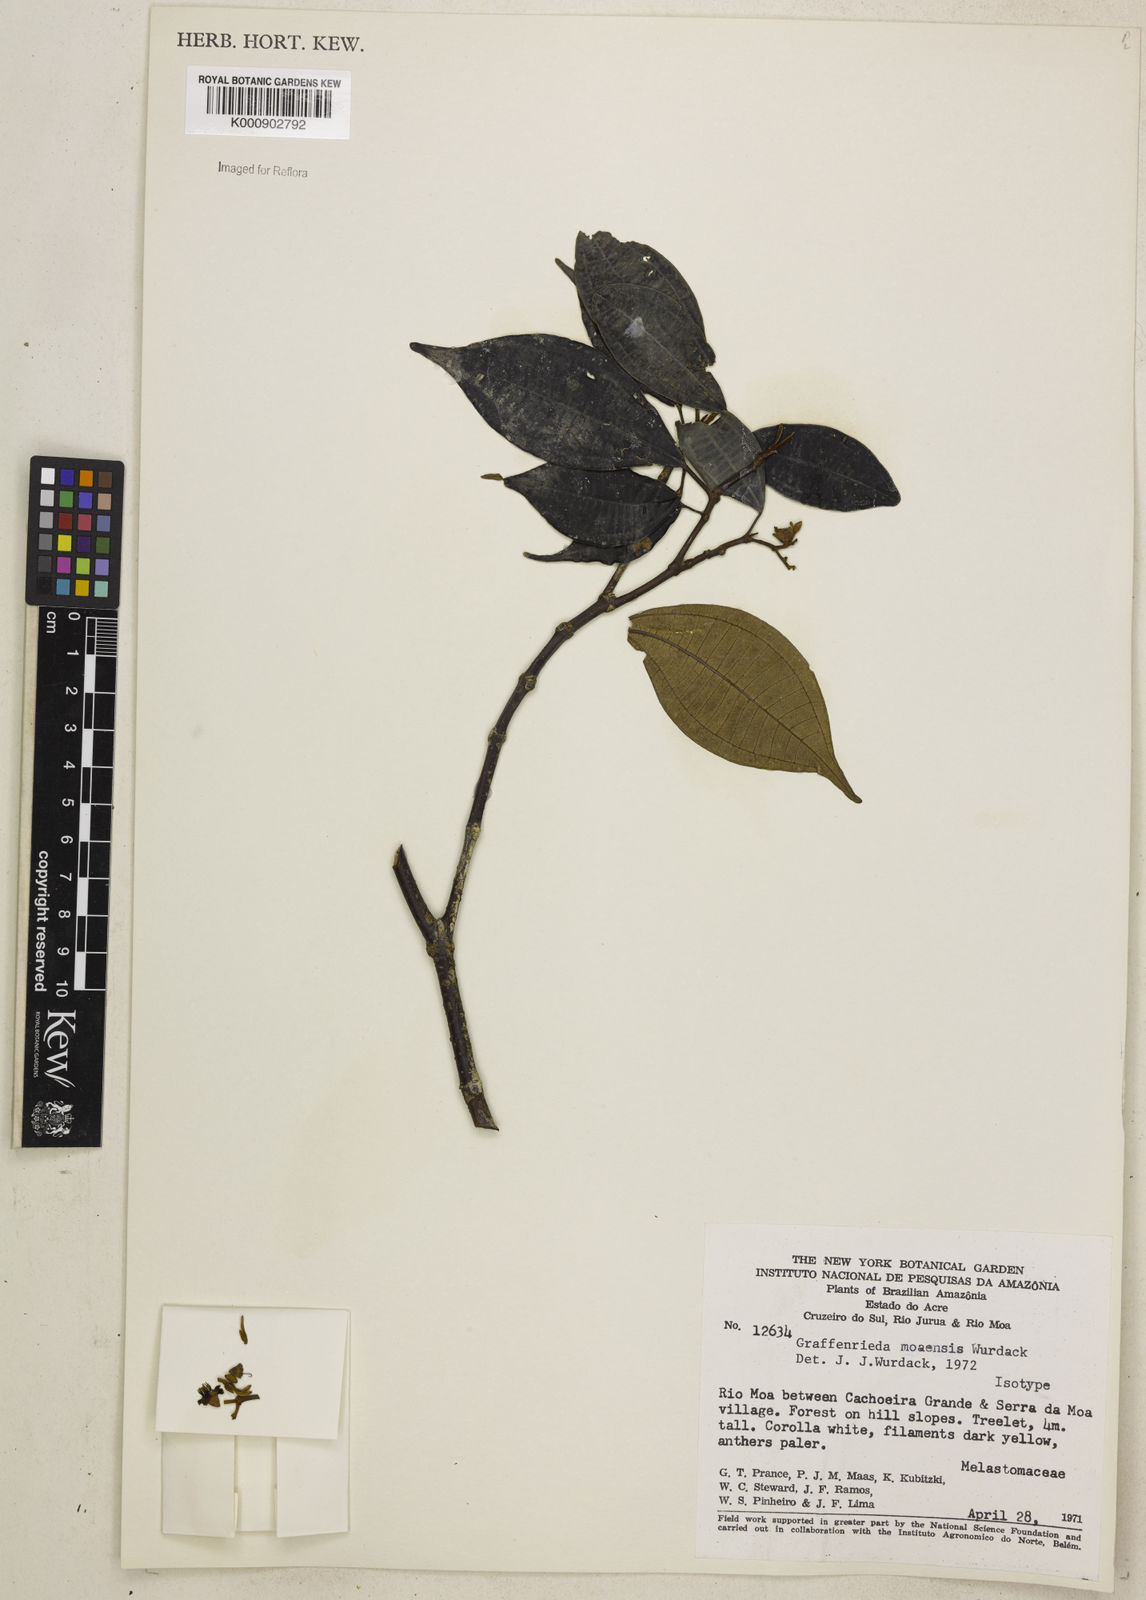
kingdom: Plantae
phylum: Tracheophyta
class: Magnoliopsida
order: Myrtales
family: Melastomataceae
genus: Graffenrieda
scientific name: Graffenrieda moaensis
